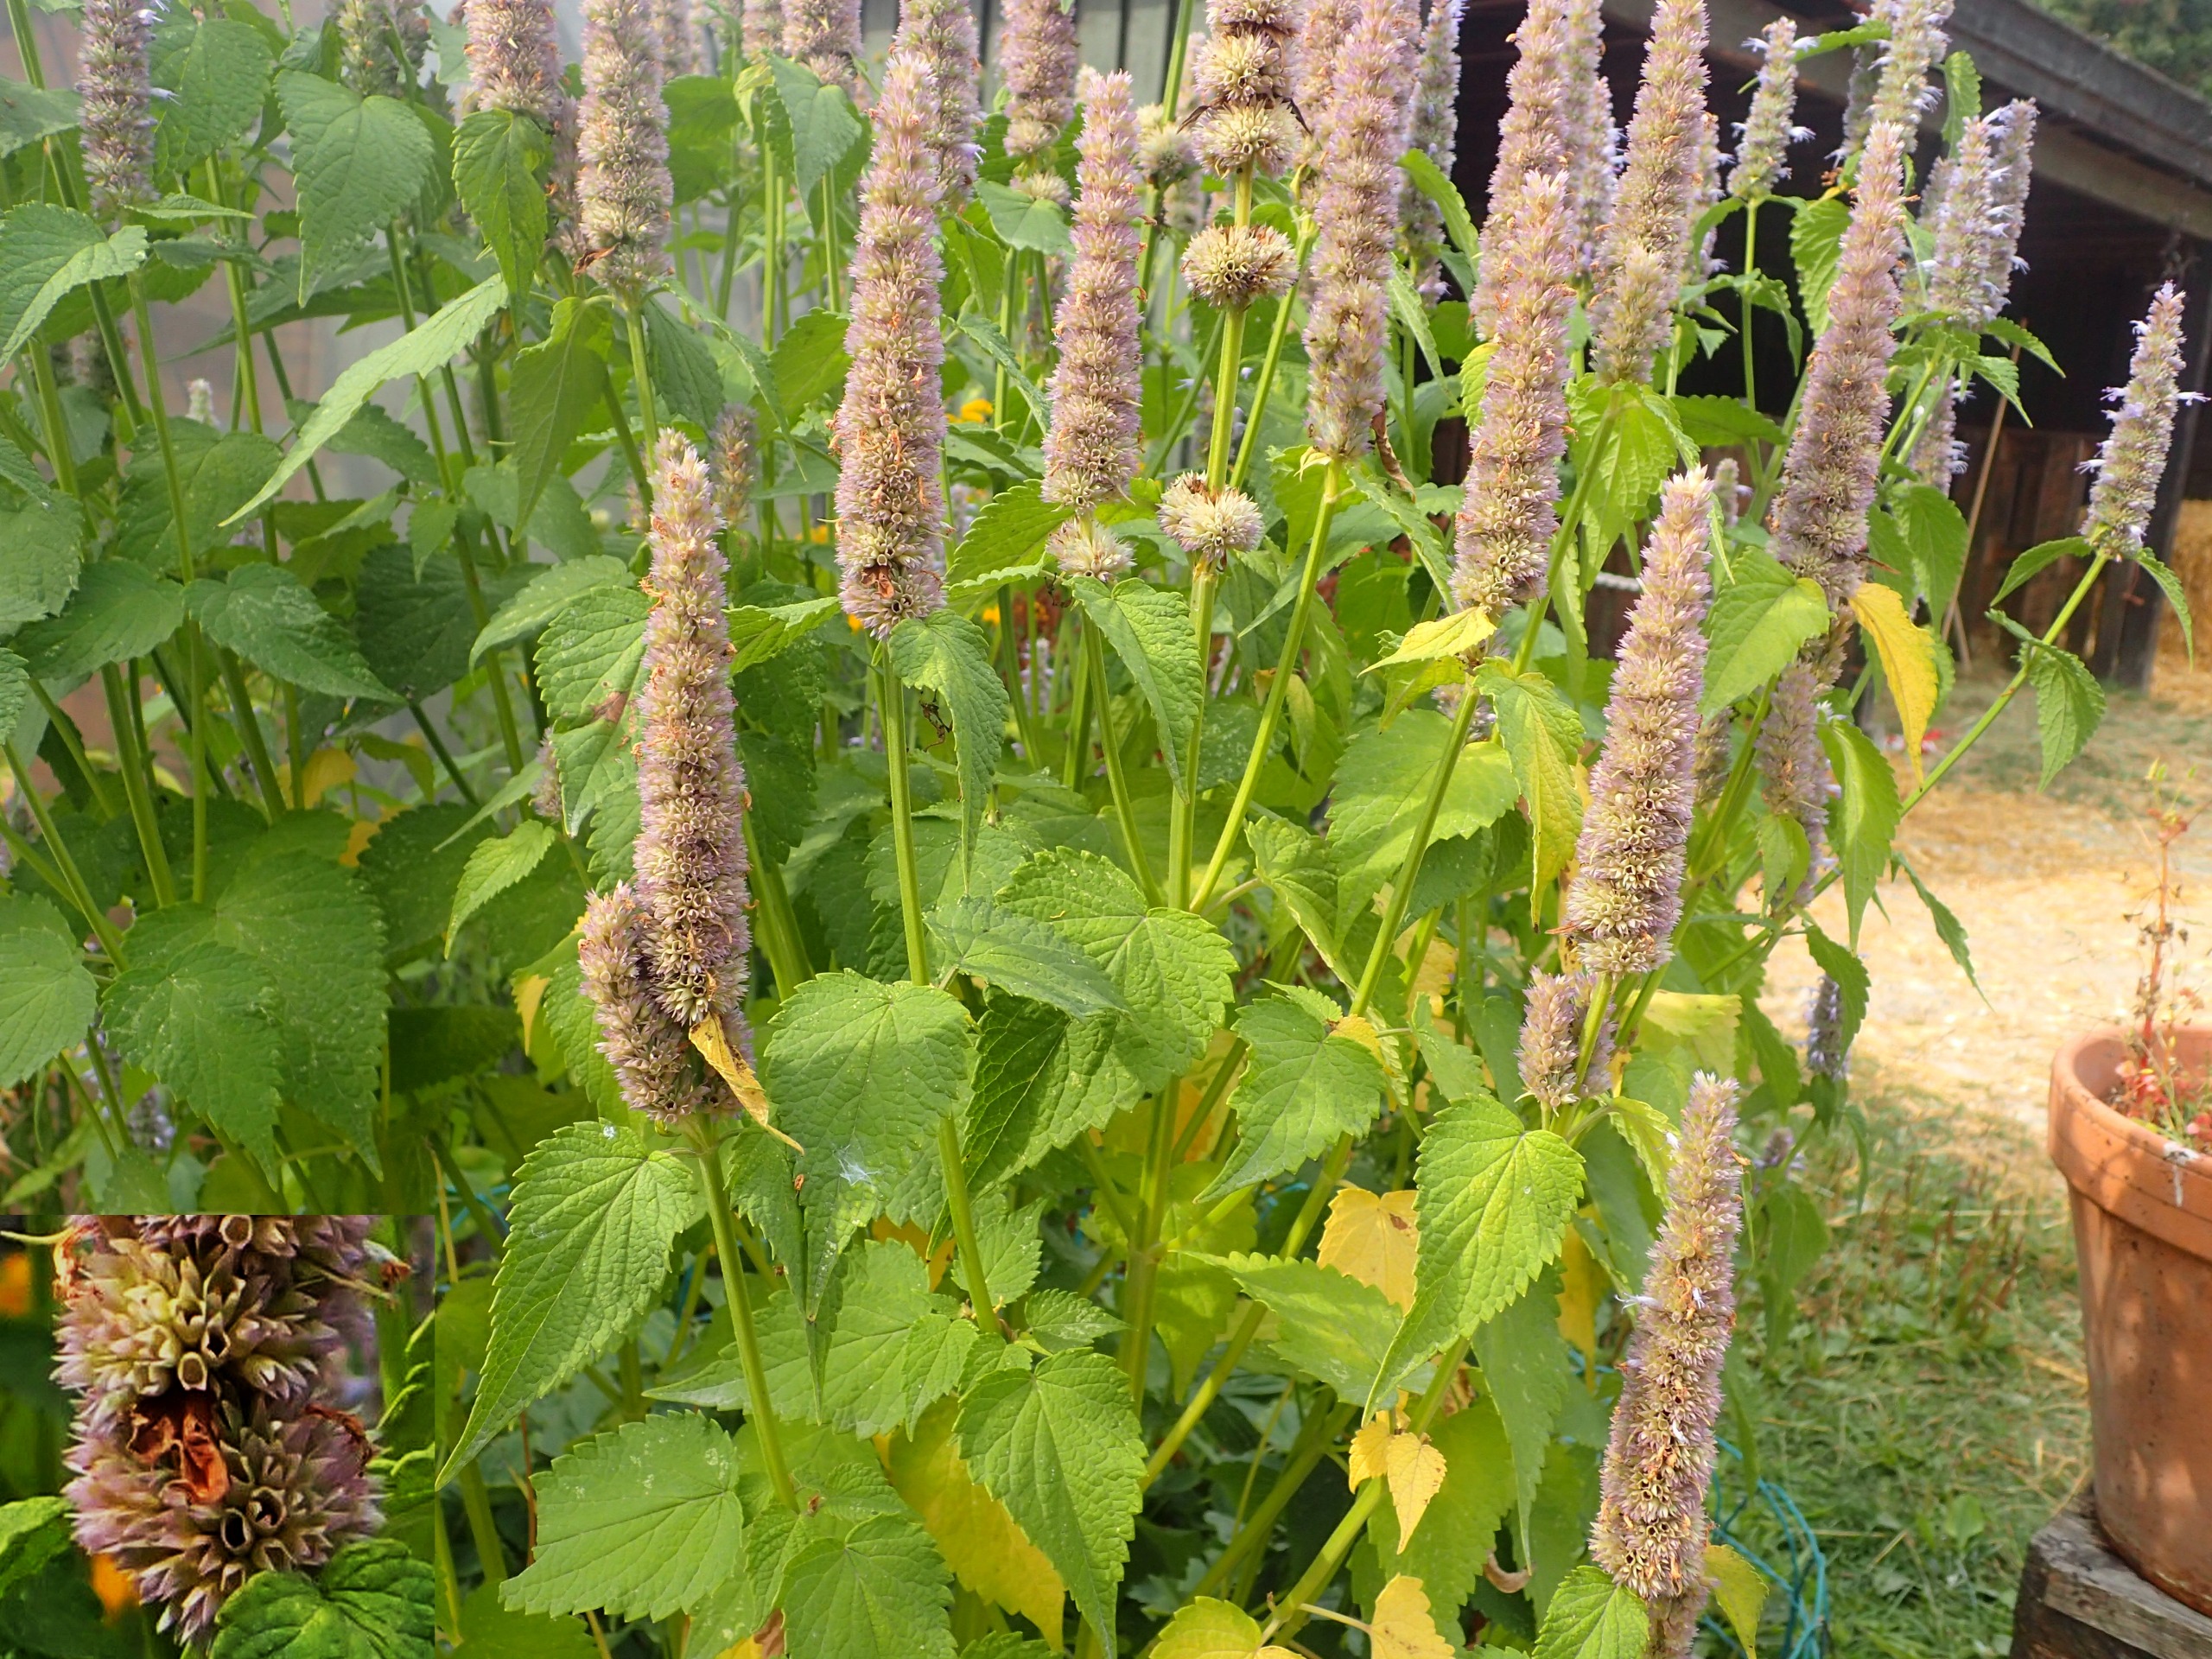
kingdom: Plantae
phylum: Tracheophyta
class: Magnoliopsida
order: Lamiales
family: Lamiaceae
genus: Agastache
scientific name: Agastache
